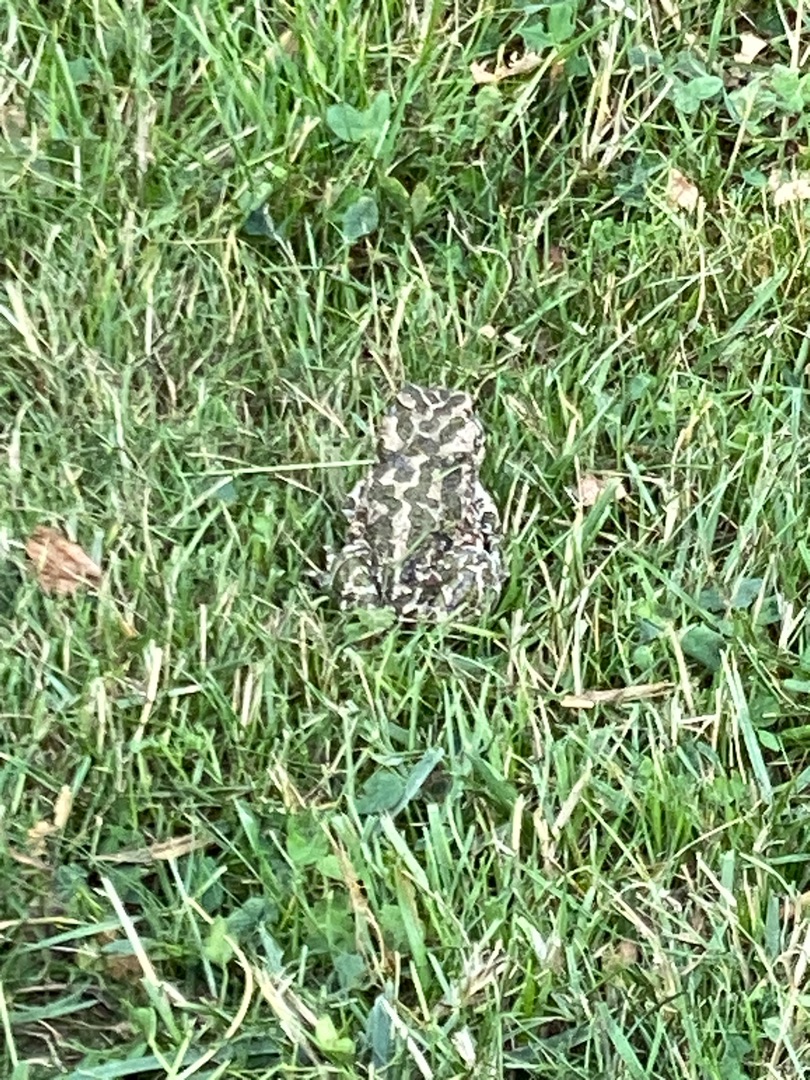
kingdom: Animalia
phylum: Chordata
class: Amphibia
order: Anura
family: Bufonidae
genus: Bufotes
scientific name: Bufotes viridis
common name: Grønbroget tudse
